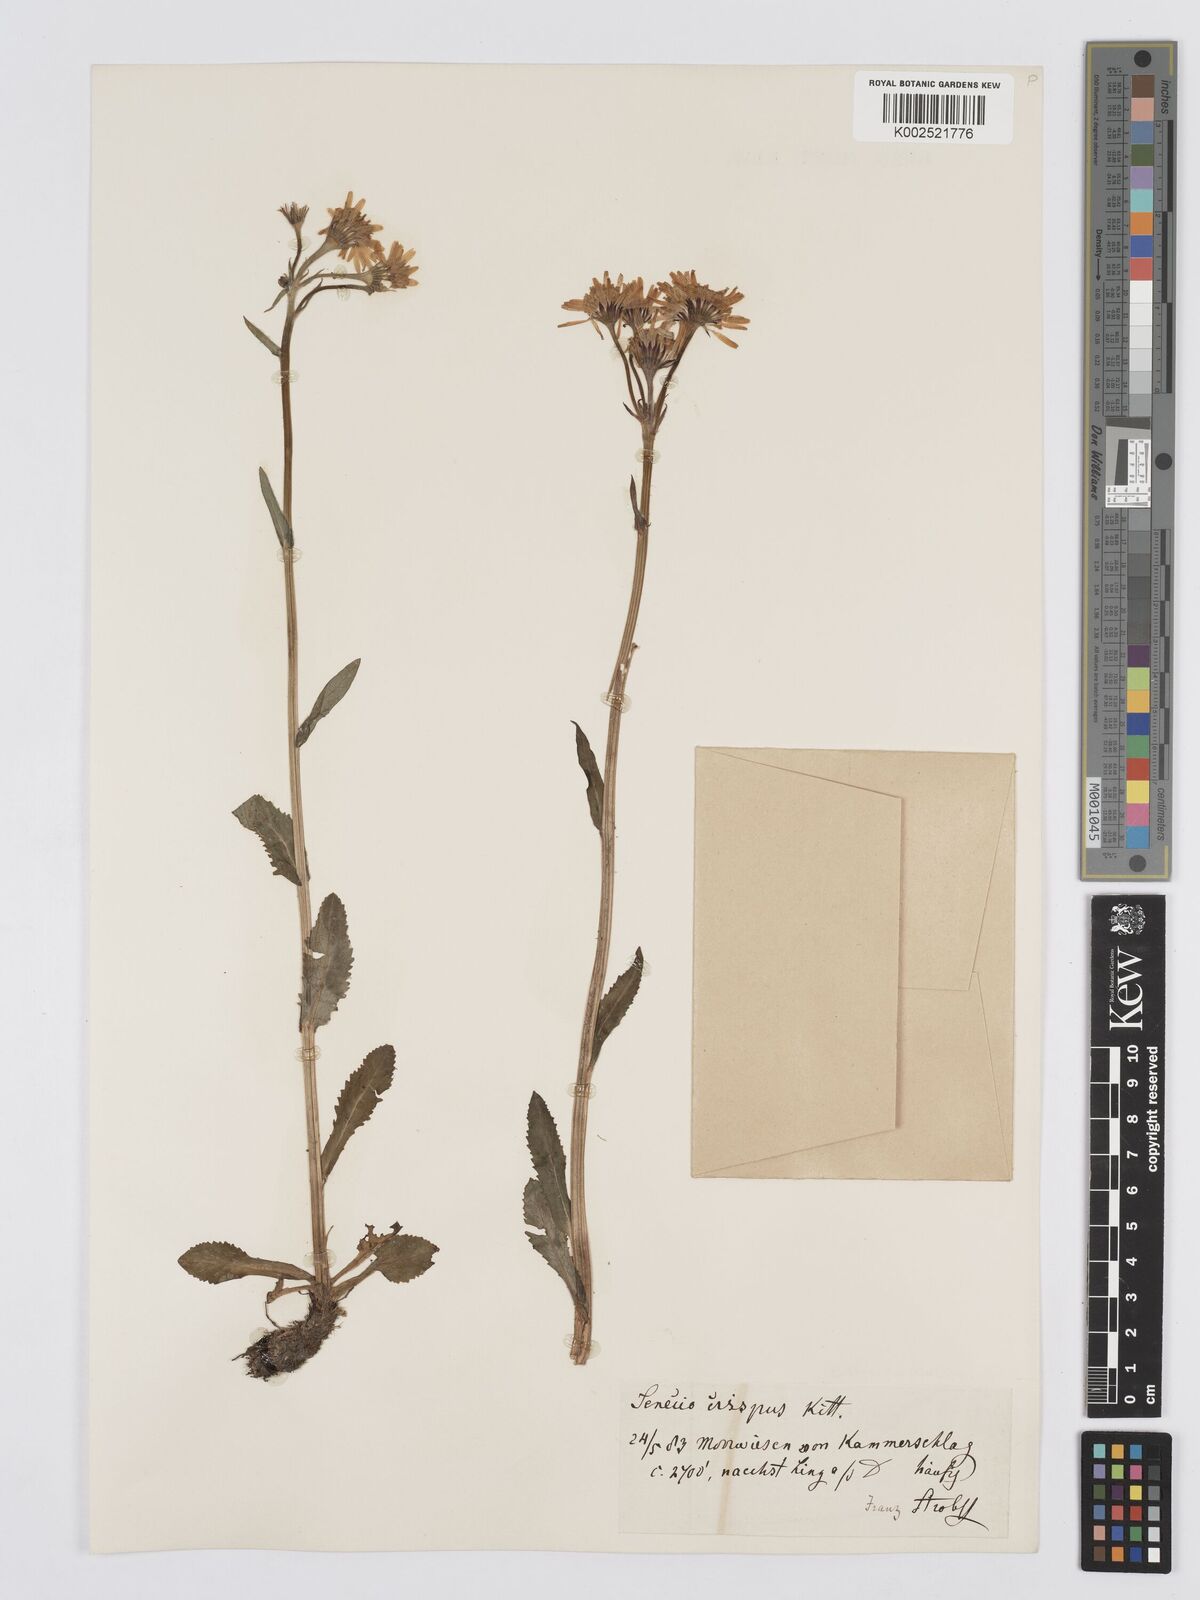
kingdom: Plantae
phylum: Tracheophyta
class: Magnoliopsida
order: Asterales
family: Asteraceae
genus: Tephroseris
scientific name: Tephroseris crispa
